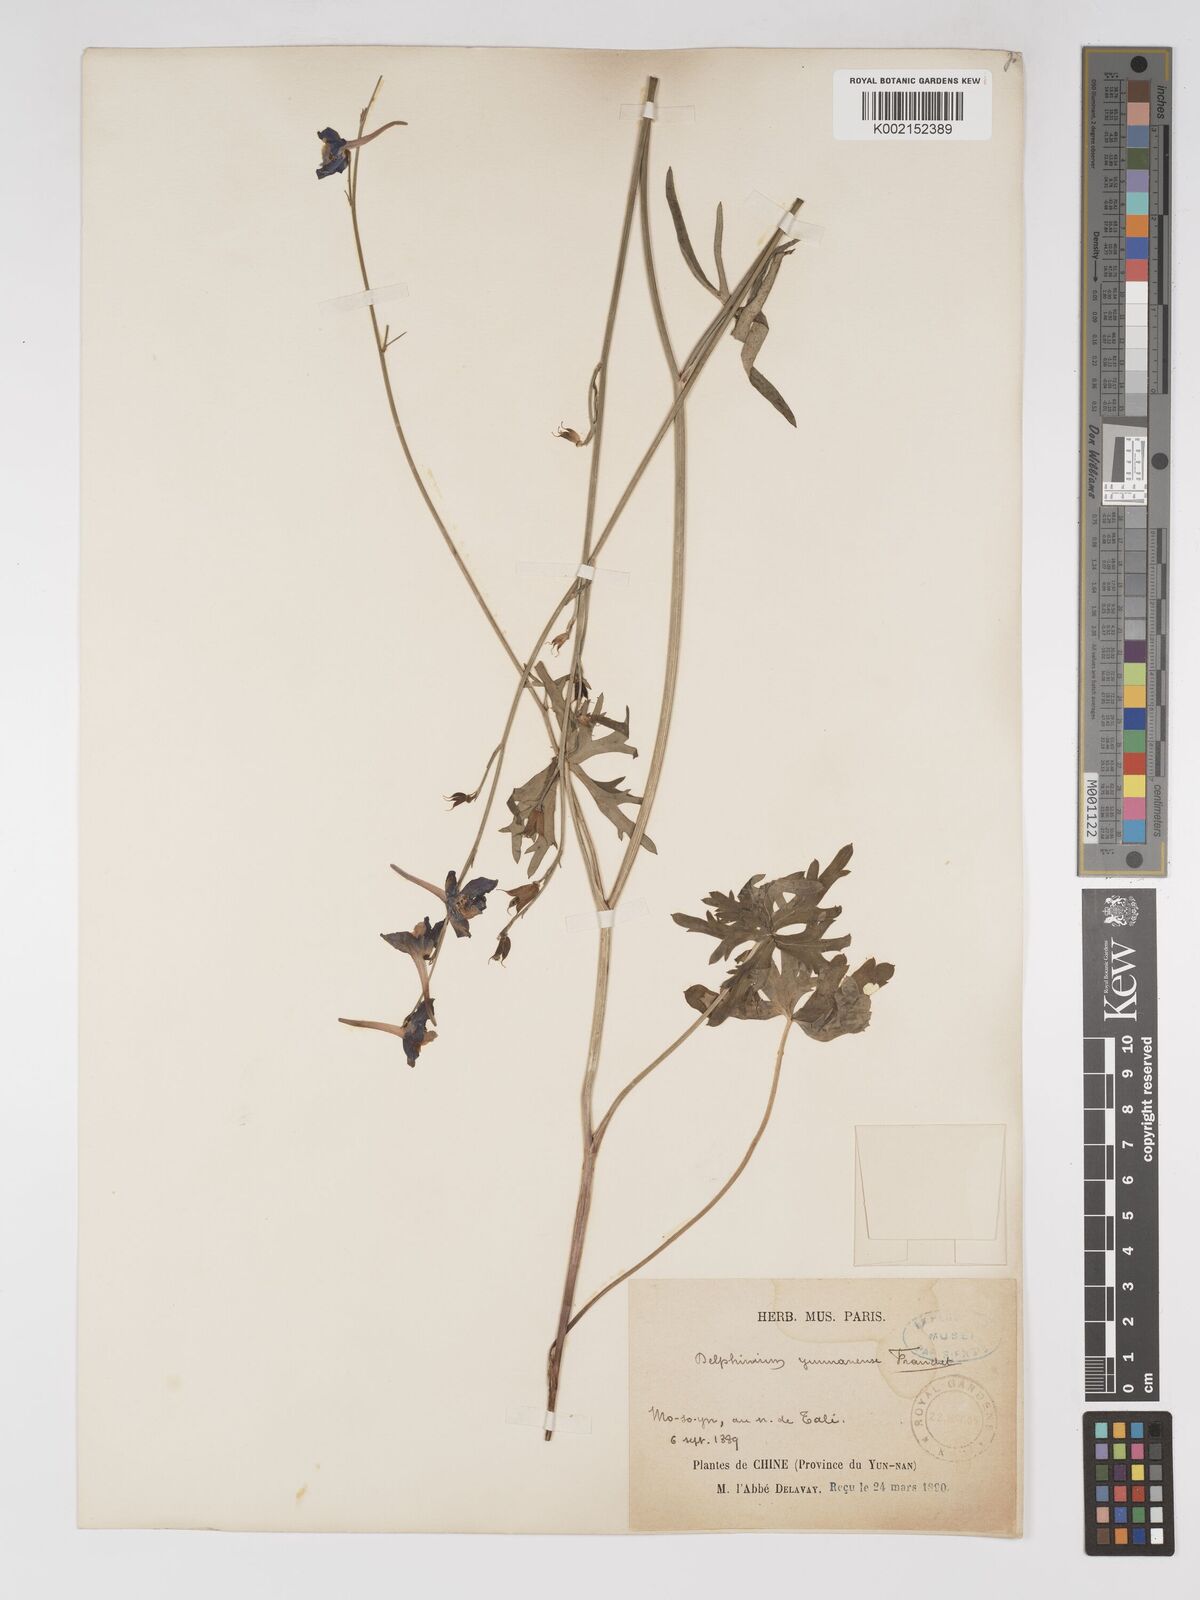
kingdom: Plantae
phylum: Tracheophyta
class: Magnoliopsida
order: Ranunculales
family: Ranunculaceae
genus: Delphinium
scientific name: Delphinium yunnanense
